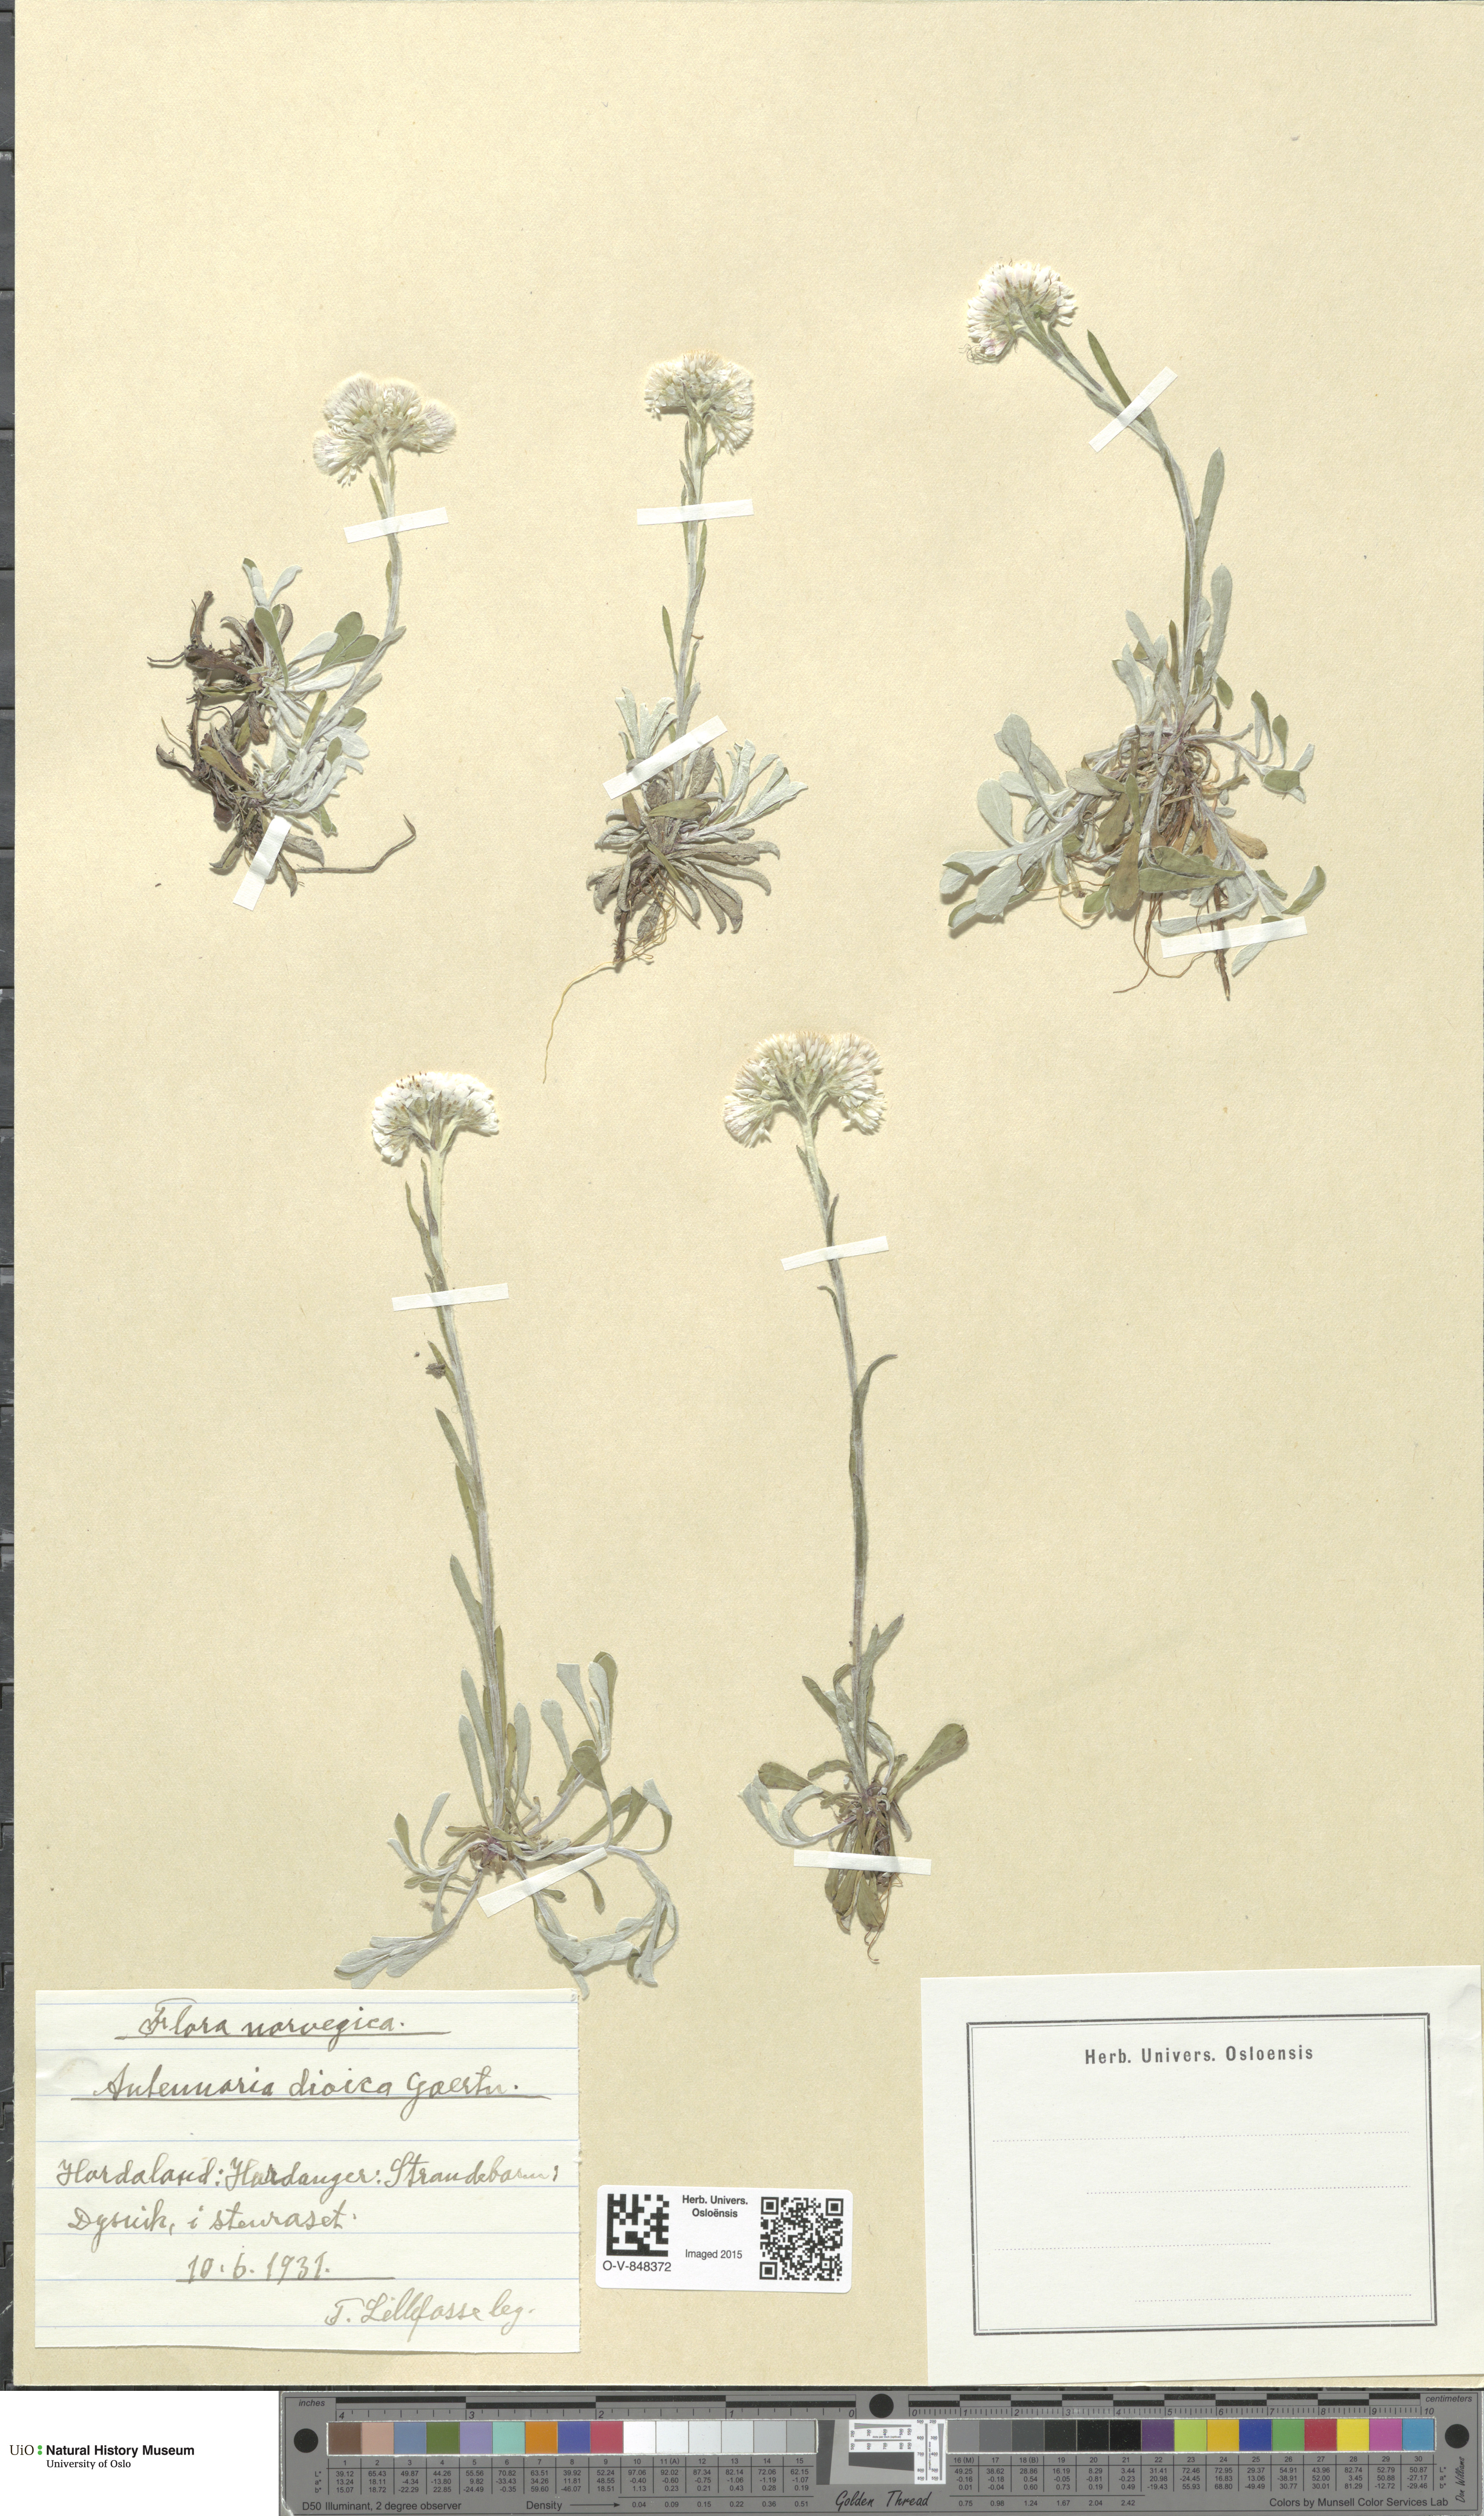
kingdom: Plantae
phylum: Tracheophyta
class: Magnoliopsida
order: Asterales
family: Asteraceae
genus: Antennaria
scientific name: Antennaria dioica
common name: Mountain everlasting
